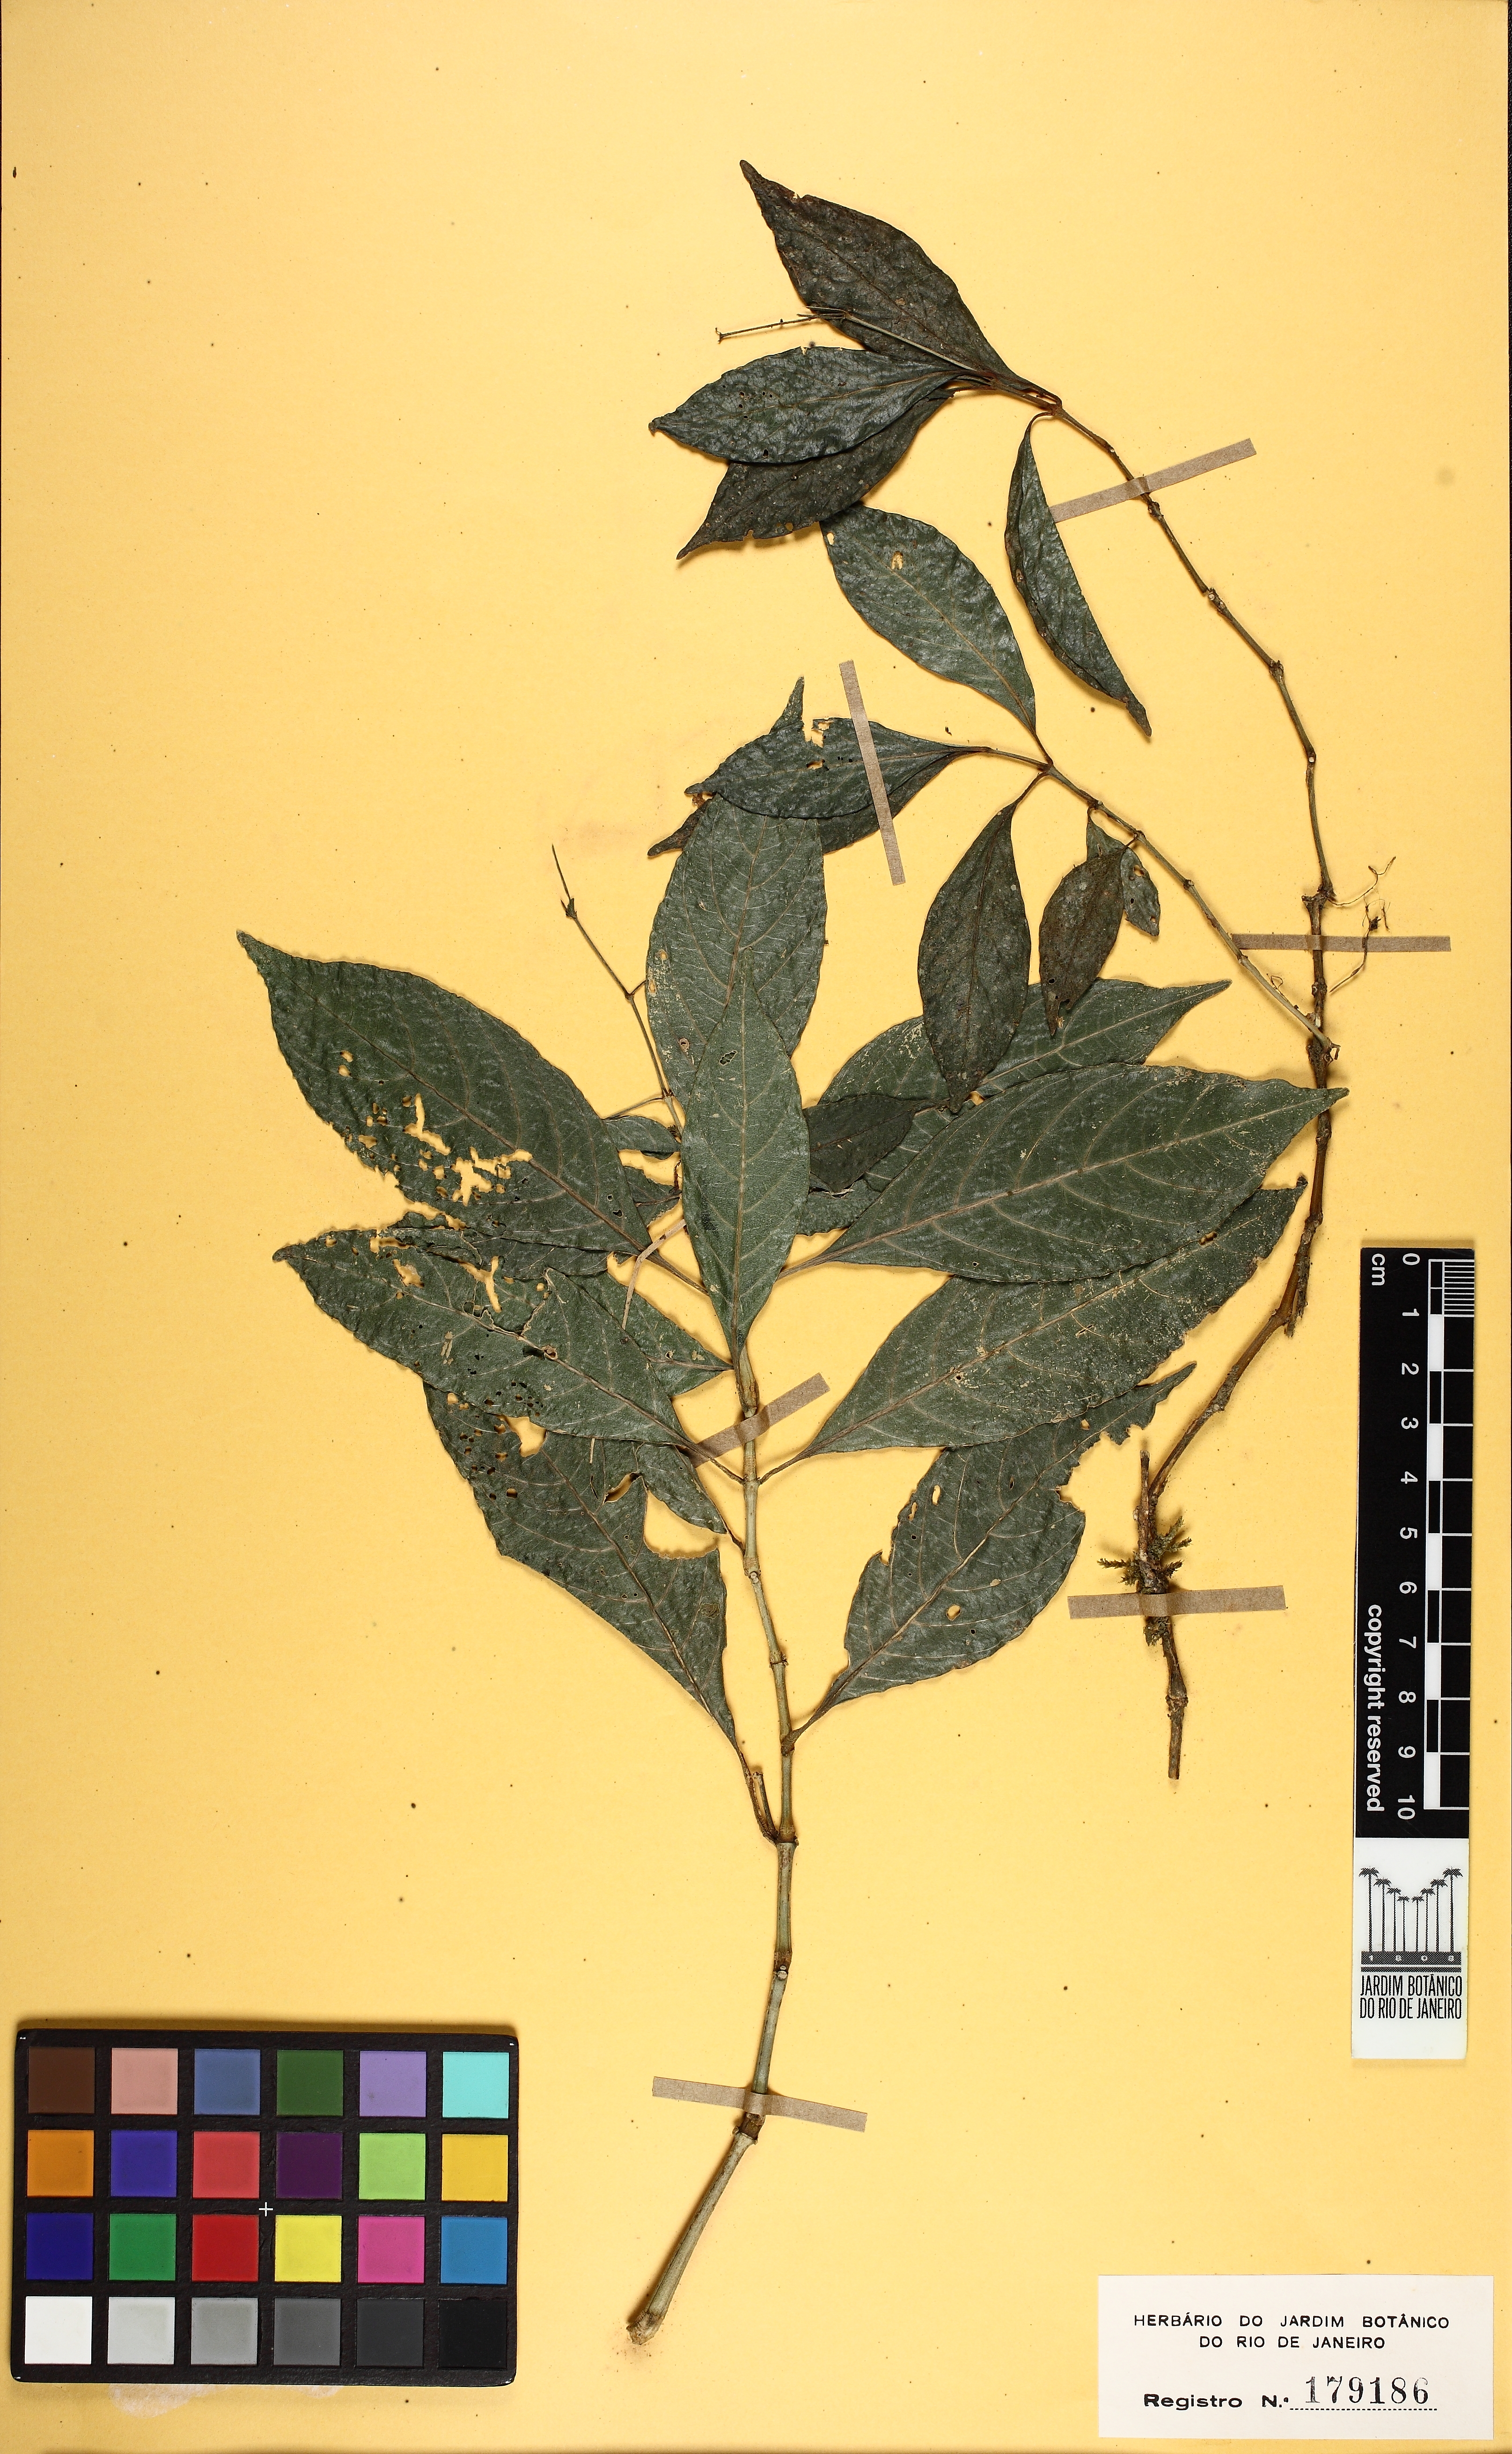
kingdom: Plantae
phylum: Tracheophyta
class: Magnoliopsida
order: Lamiales
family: Acanthaceae
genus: Justicia
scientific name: Justicia
